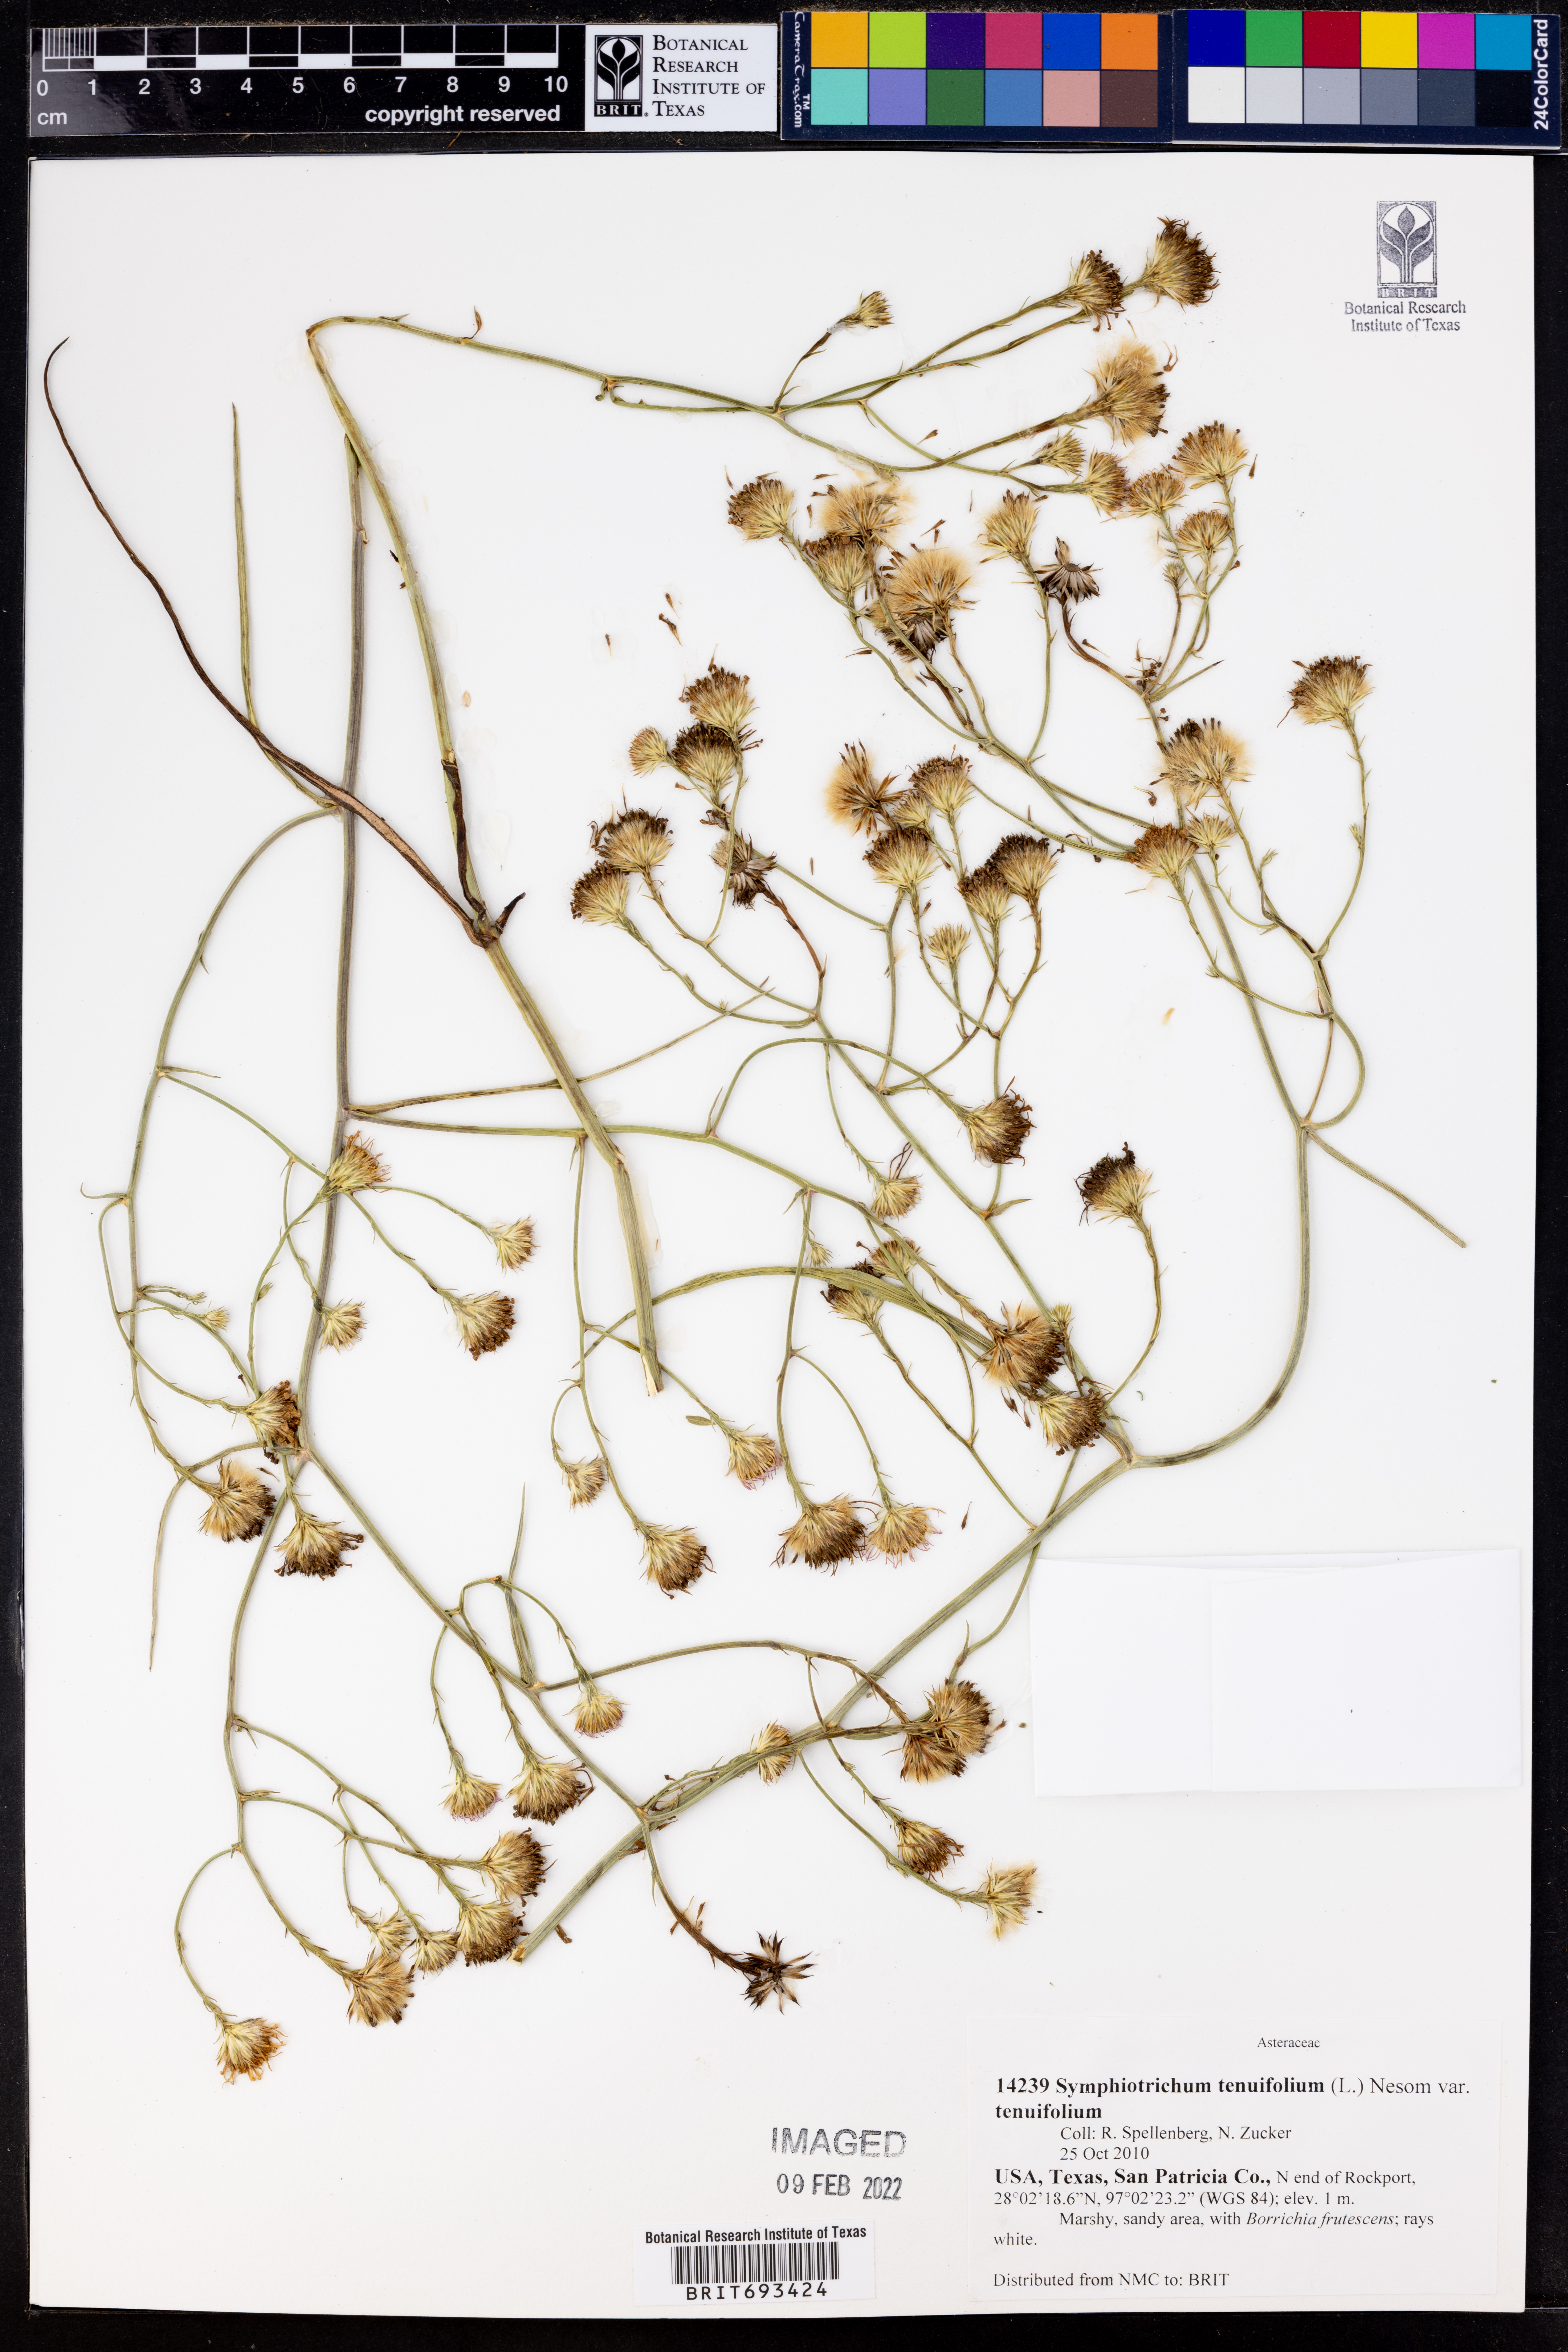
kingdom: Plantae
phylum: Tracheophyta
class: Magnoliopsida
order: Asterales
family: Asteraceae
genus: Symphyotrichum
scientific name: Symphyotrichum tenuifolium
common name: Perennial salt-marsh aster
